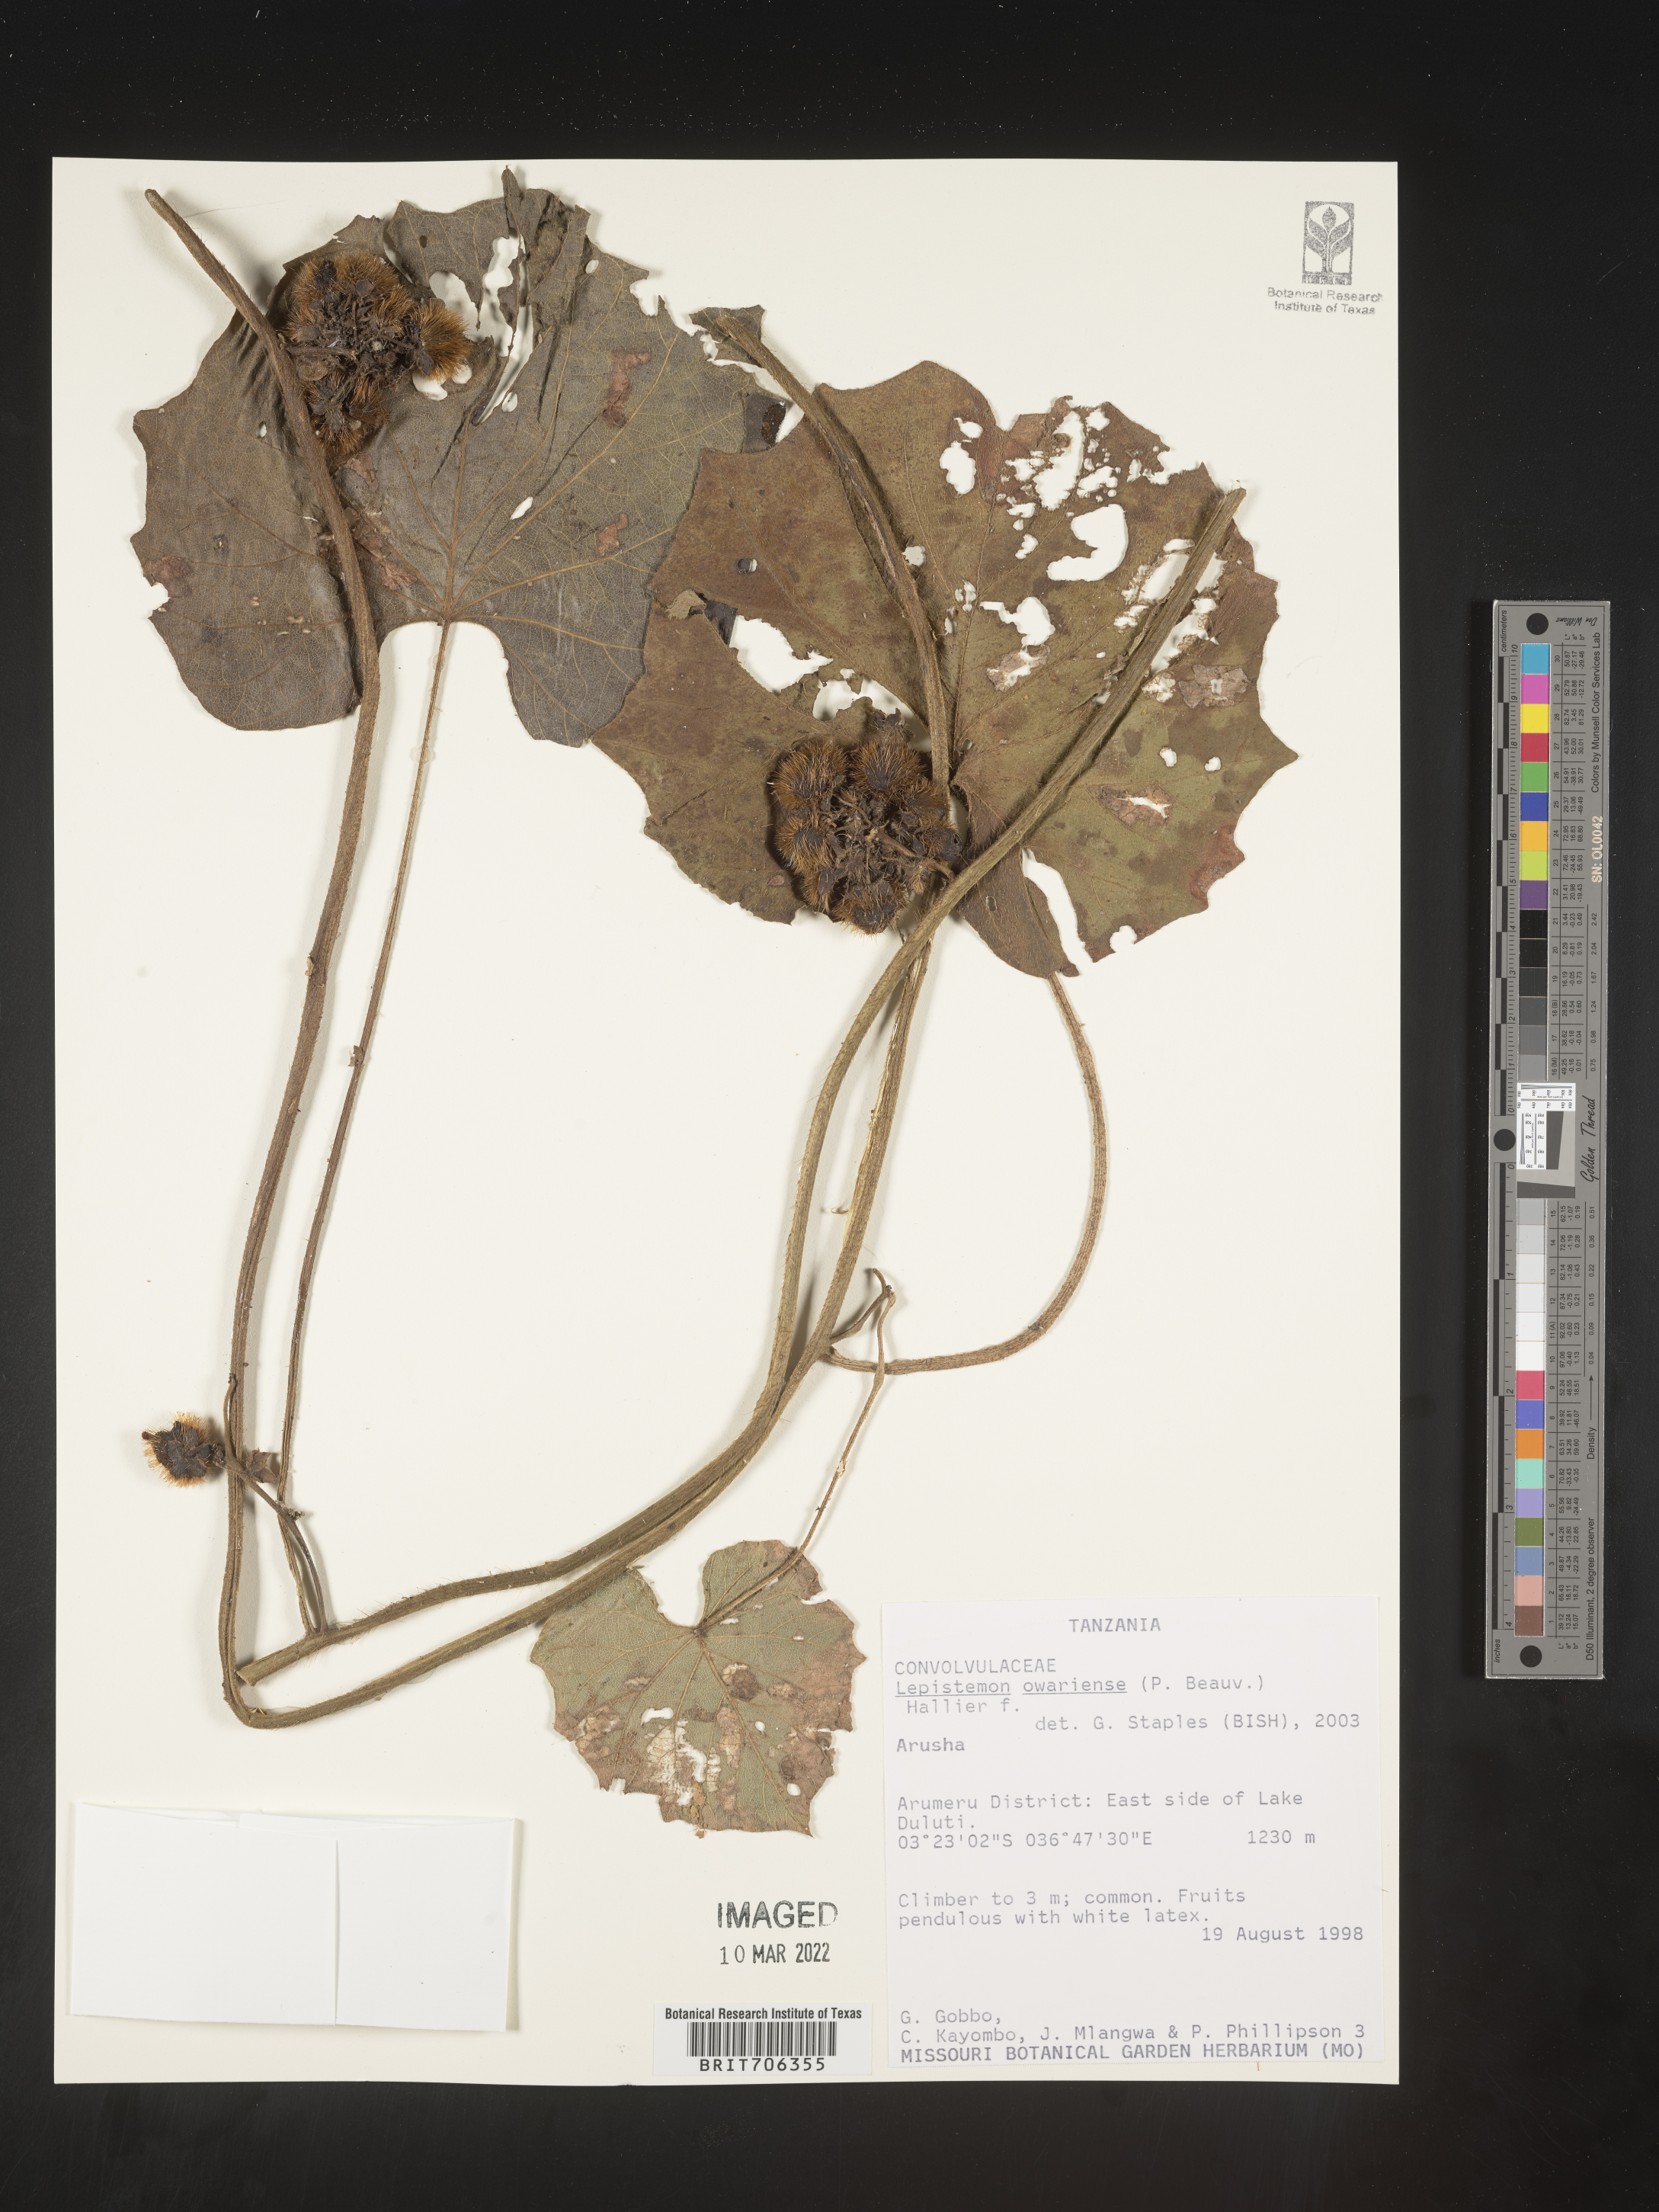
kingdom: Plantae
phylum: Tracheophyta
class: Magnoliopsida
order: Solanales
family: Convolvulaceae
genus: Lepistemon
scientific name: Lepistemon
